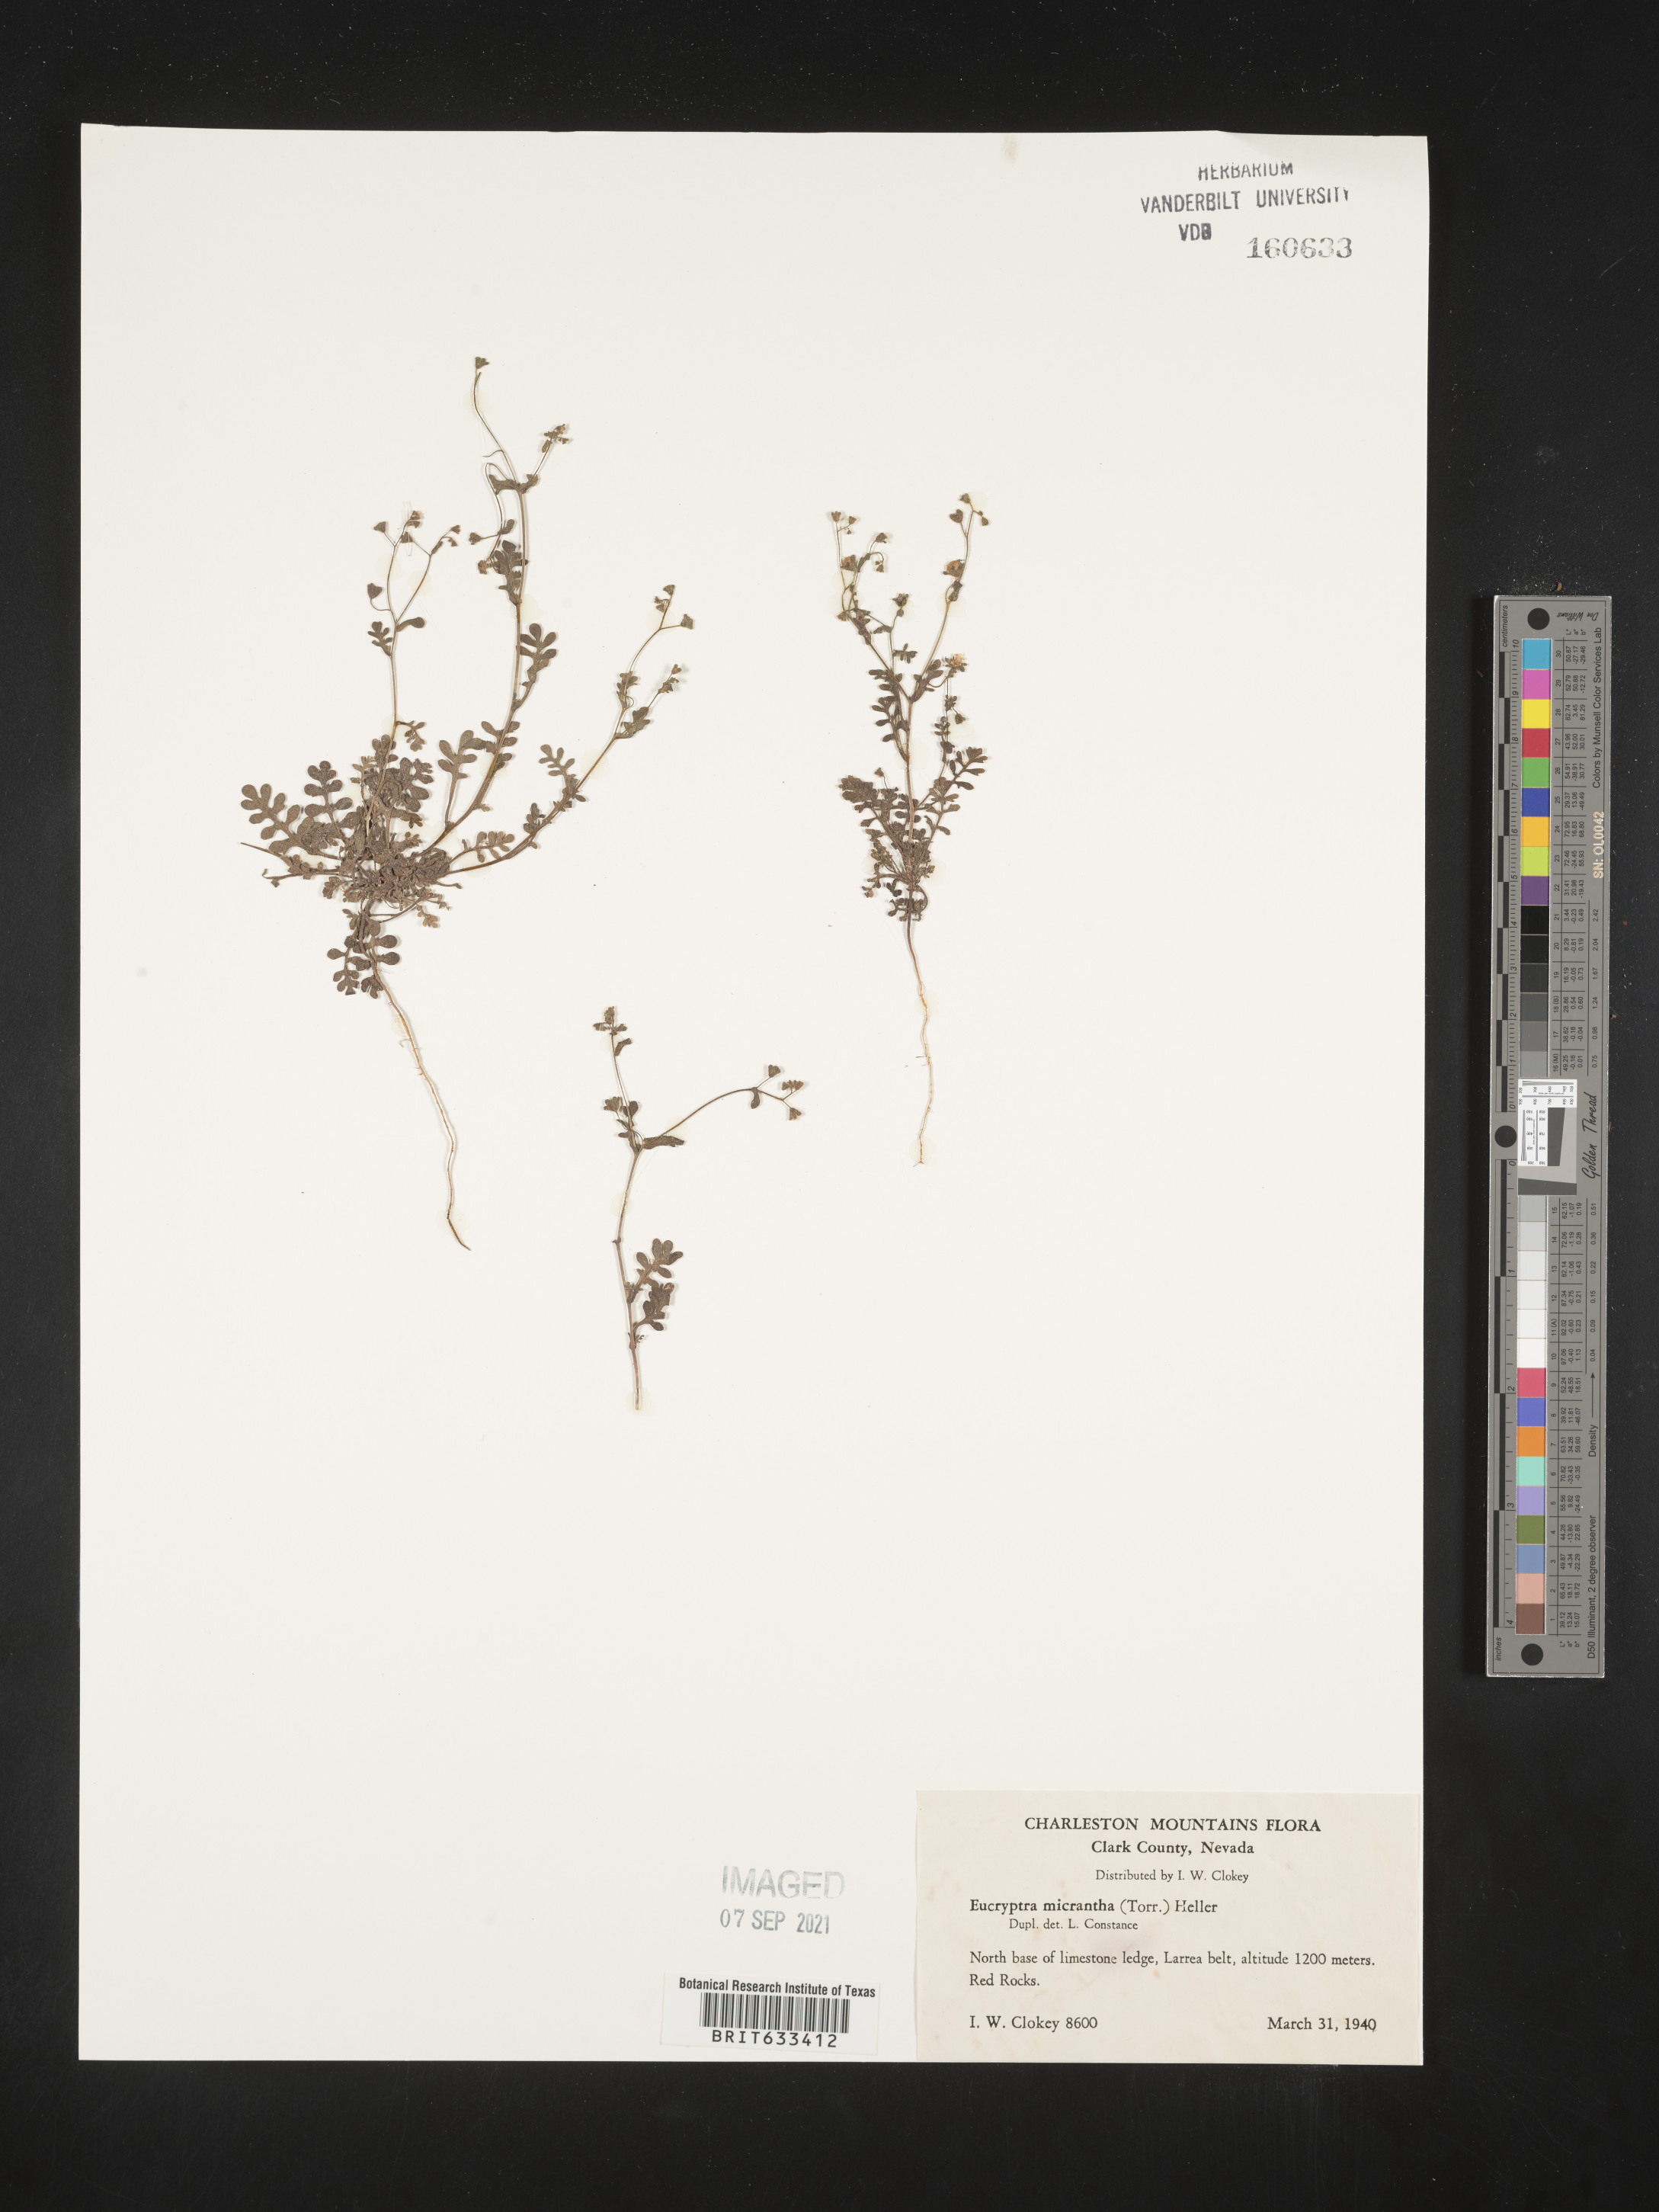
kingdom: Plantae
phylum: Tracheophyta
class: Magnoliopsida
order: Boraginales
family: Hydrophyllaceae
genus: Eucrypta
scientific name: Eucrypta micrantha
